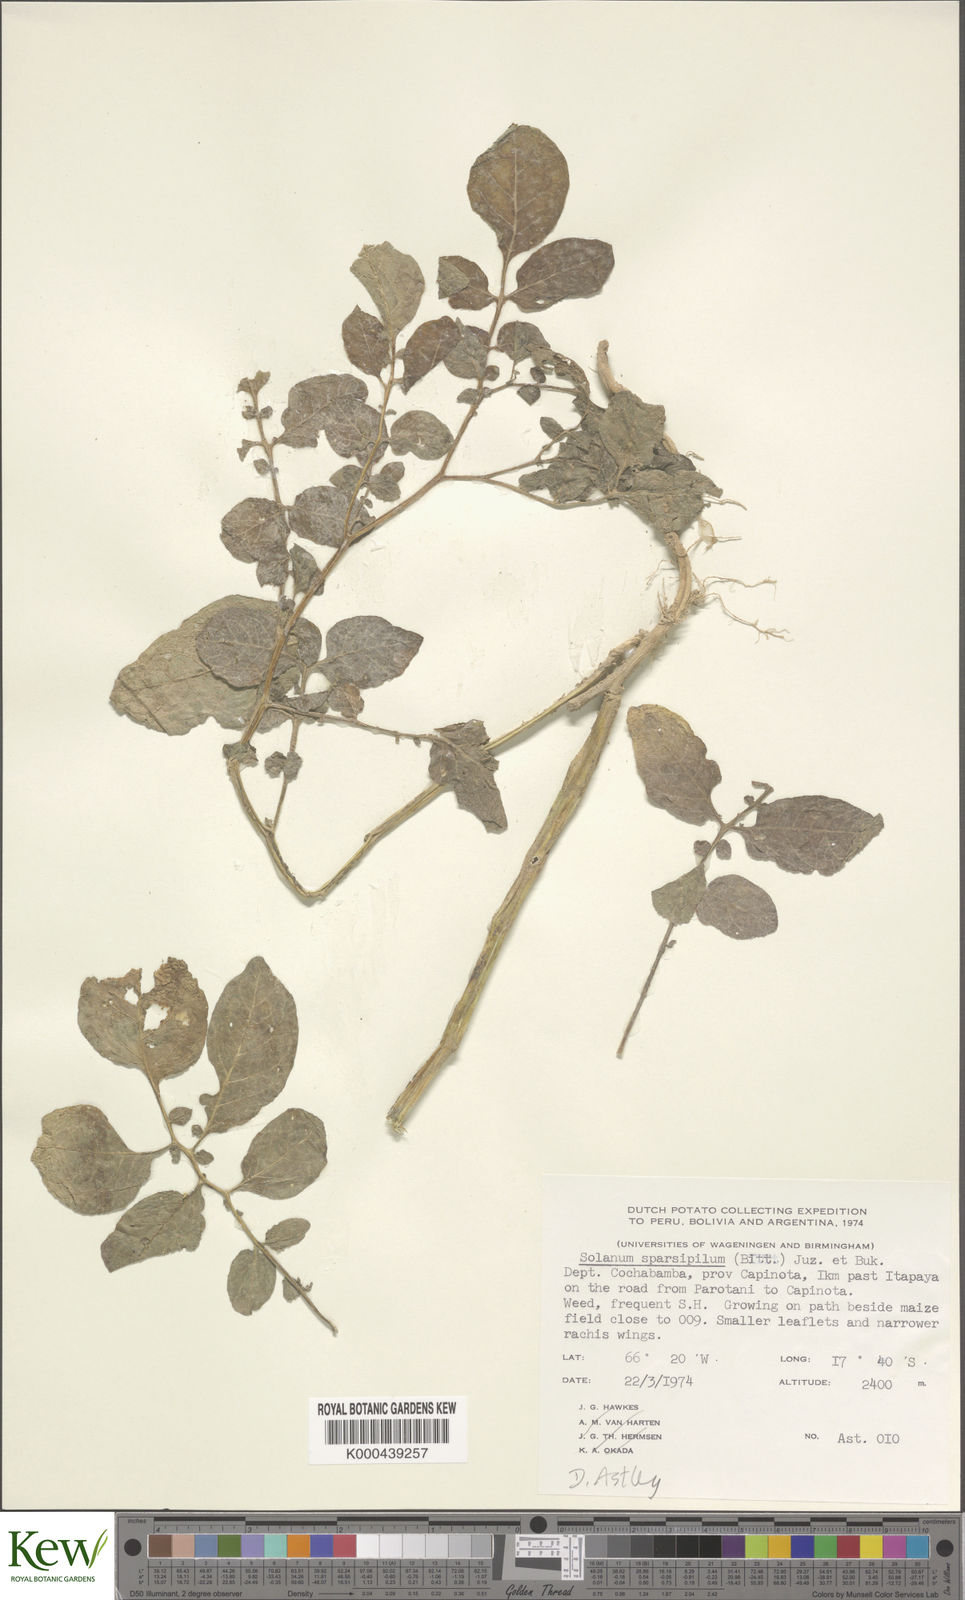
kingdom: Plantae
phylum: Tracheophyta
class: Magnoliopsida
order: Solanales
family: Solanaceae
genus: Solanum
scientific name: Solanum brevicaule
